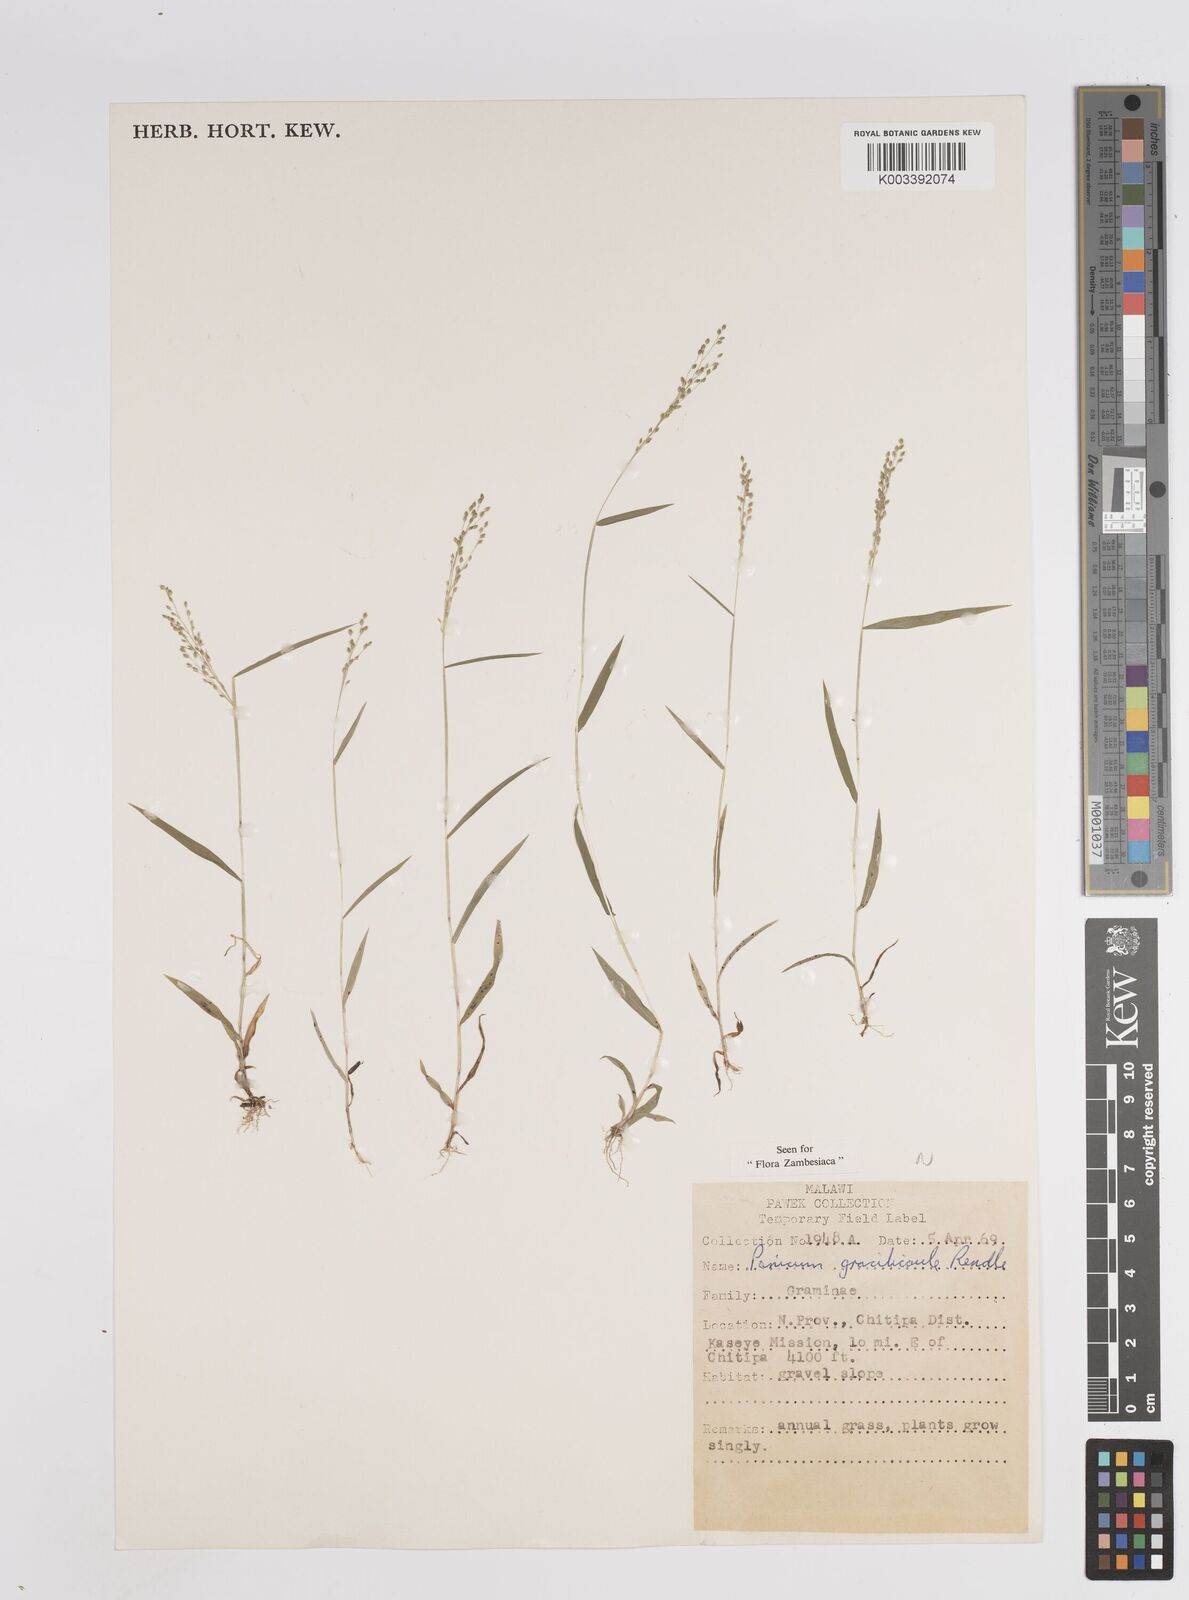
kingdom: Plantae
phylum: Tracheophyta
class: Liliopsida
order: Poales
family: Poaceae
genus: Trichanthecium
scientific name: Trichanthecium gracilicaule
